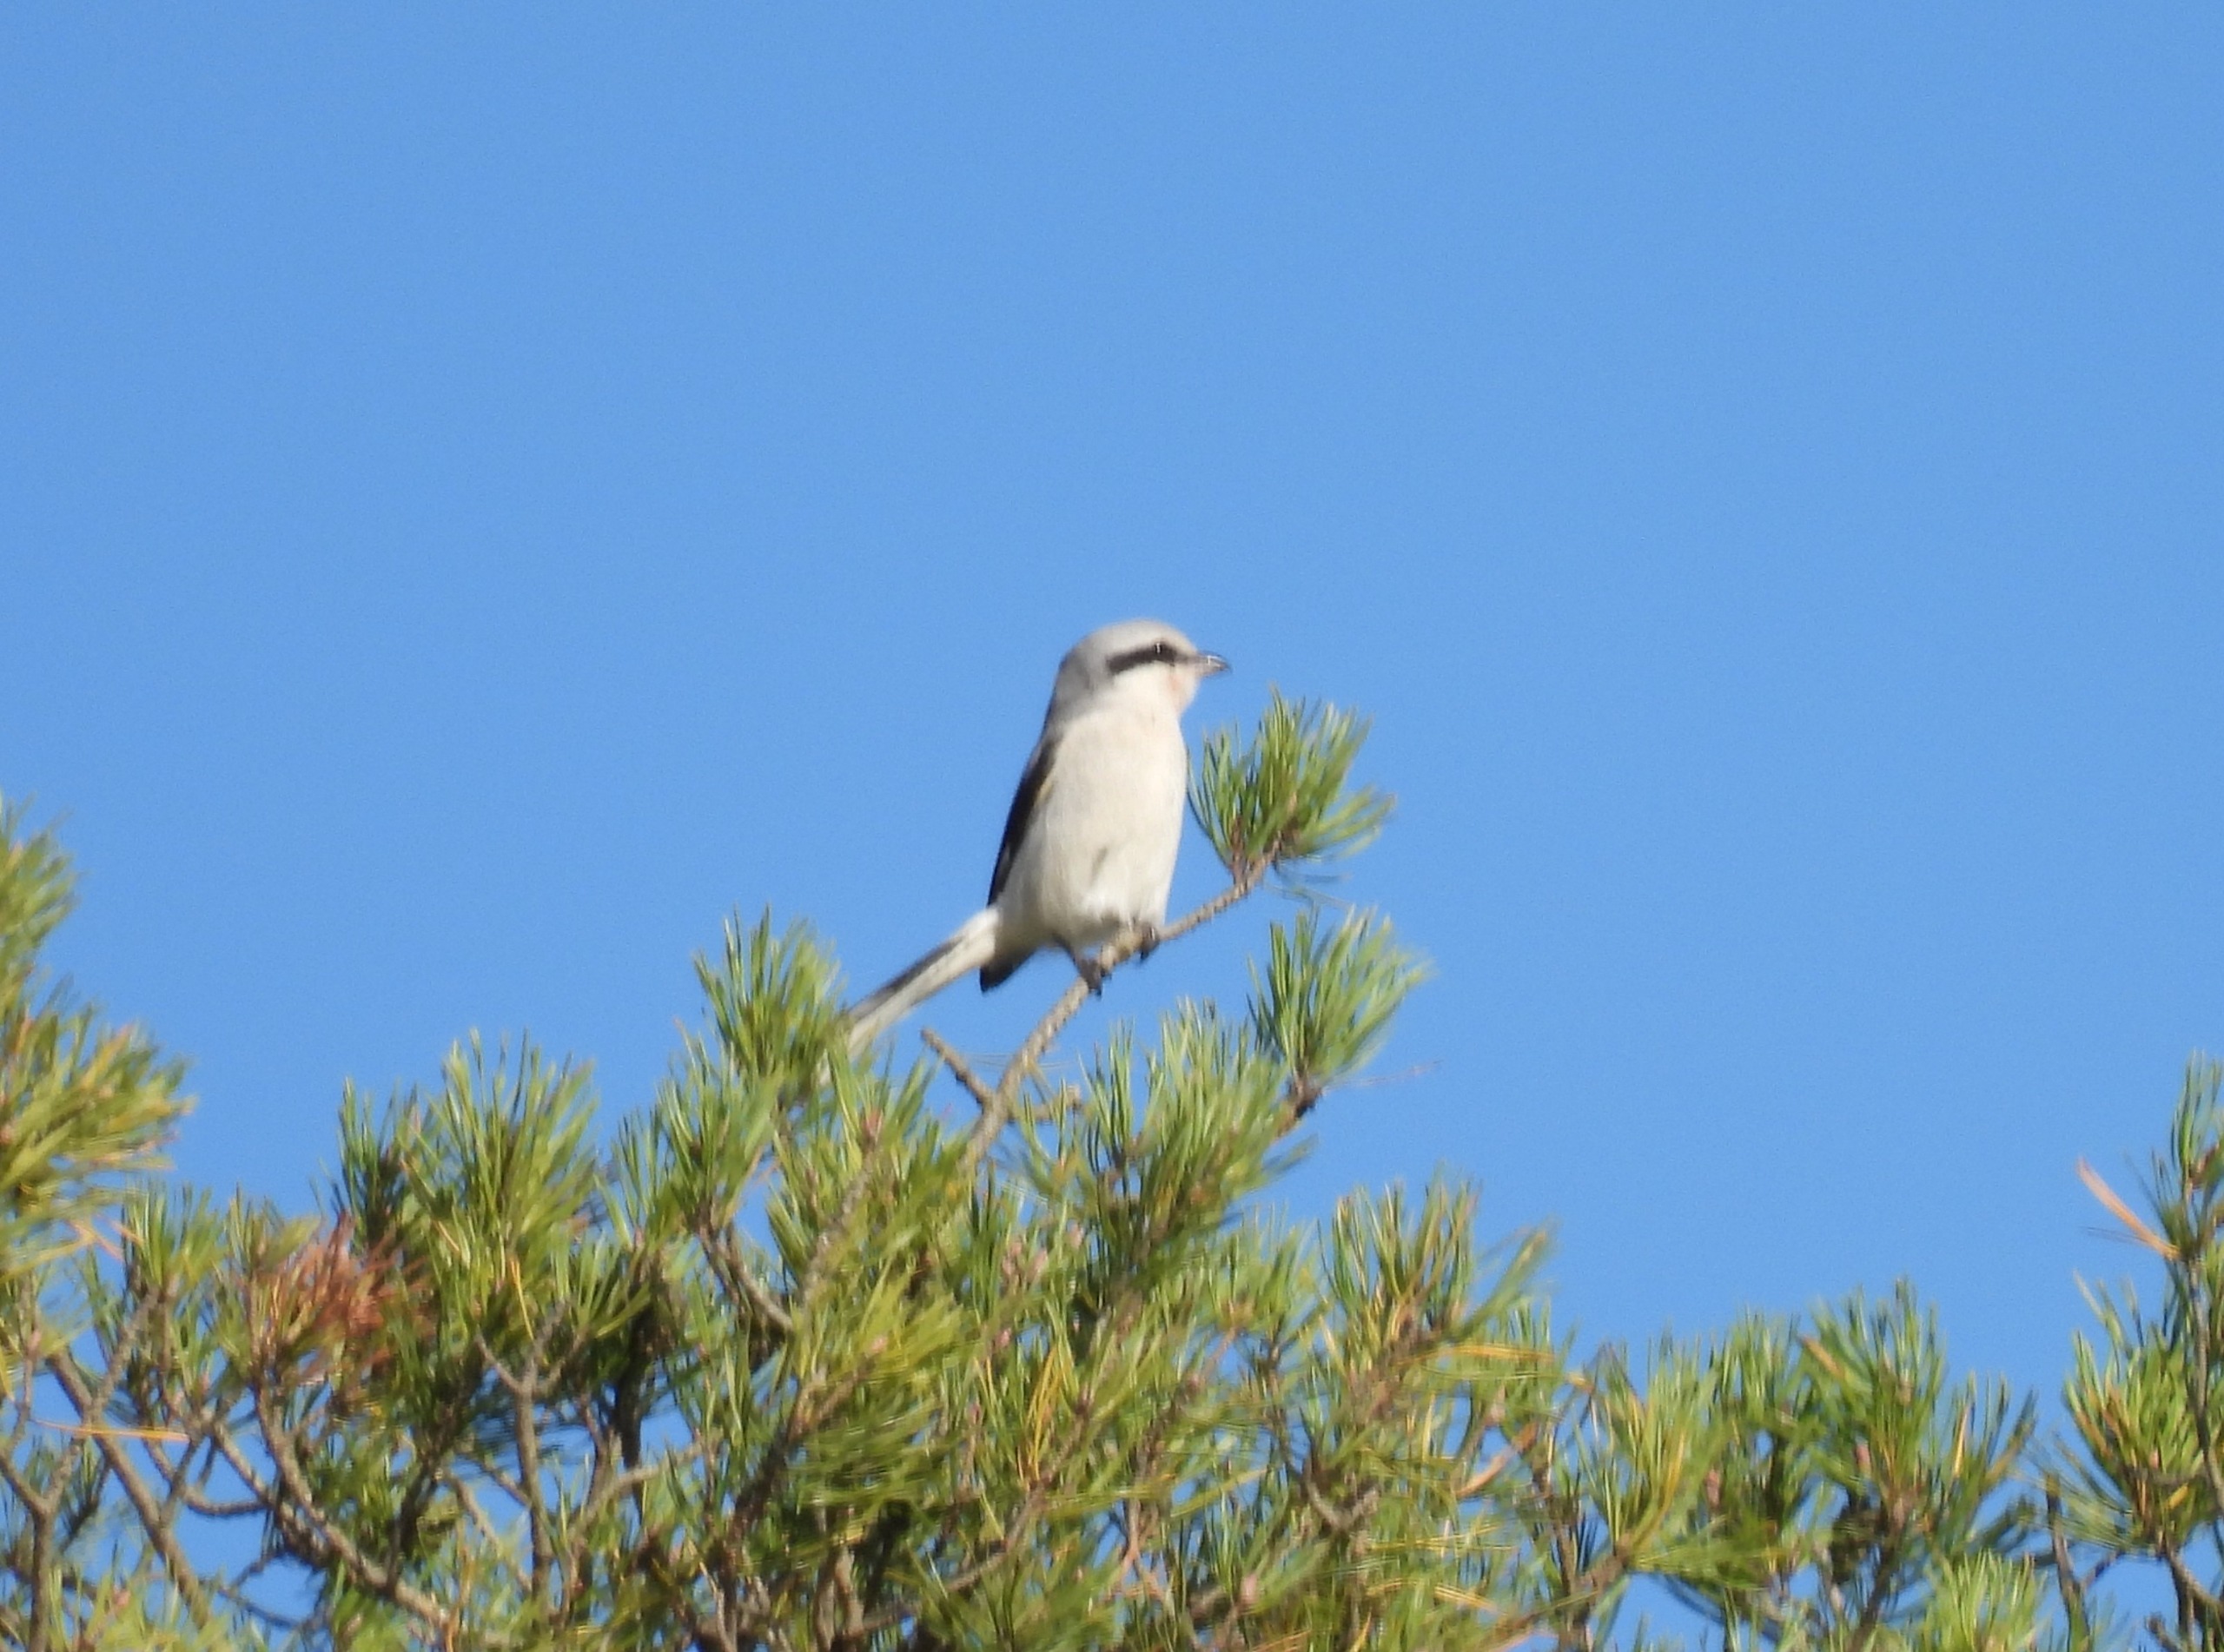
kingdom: Animalia
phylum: Chordata
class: Aves
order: Passeriformes
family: Laniidae
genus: Lanius
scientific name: Lanius excubitor
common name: Stor tornskade
